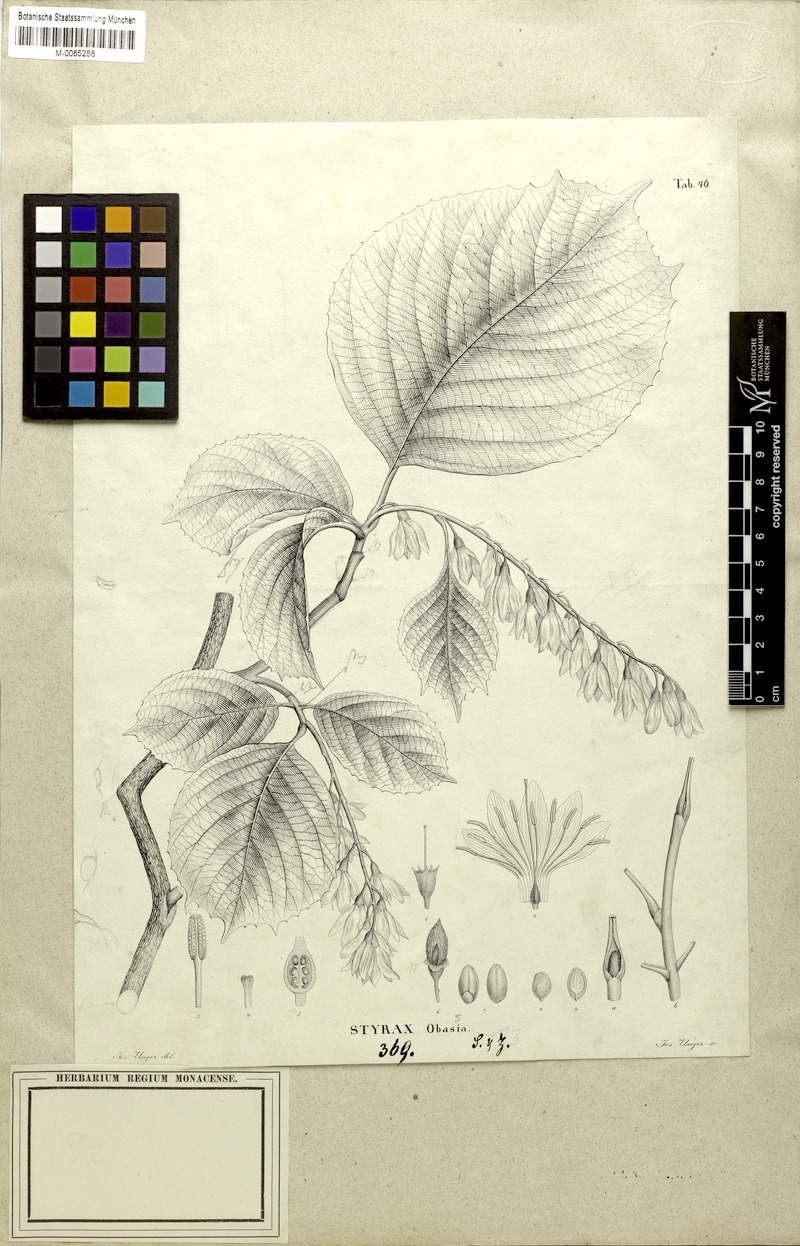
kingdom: Plantae
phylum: Tracheophyta
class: Magnoliopsida
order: Ericales
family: Styracaceae
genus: Styrax
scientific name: Styrax obassia
